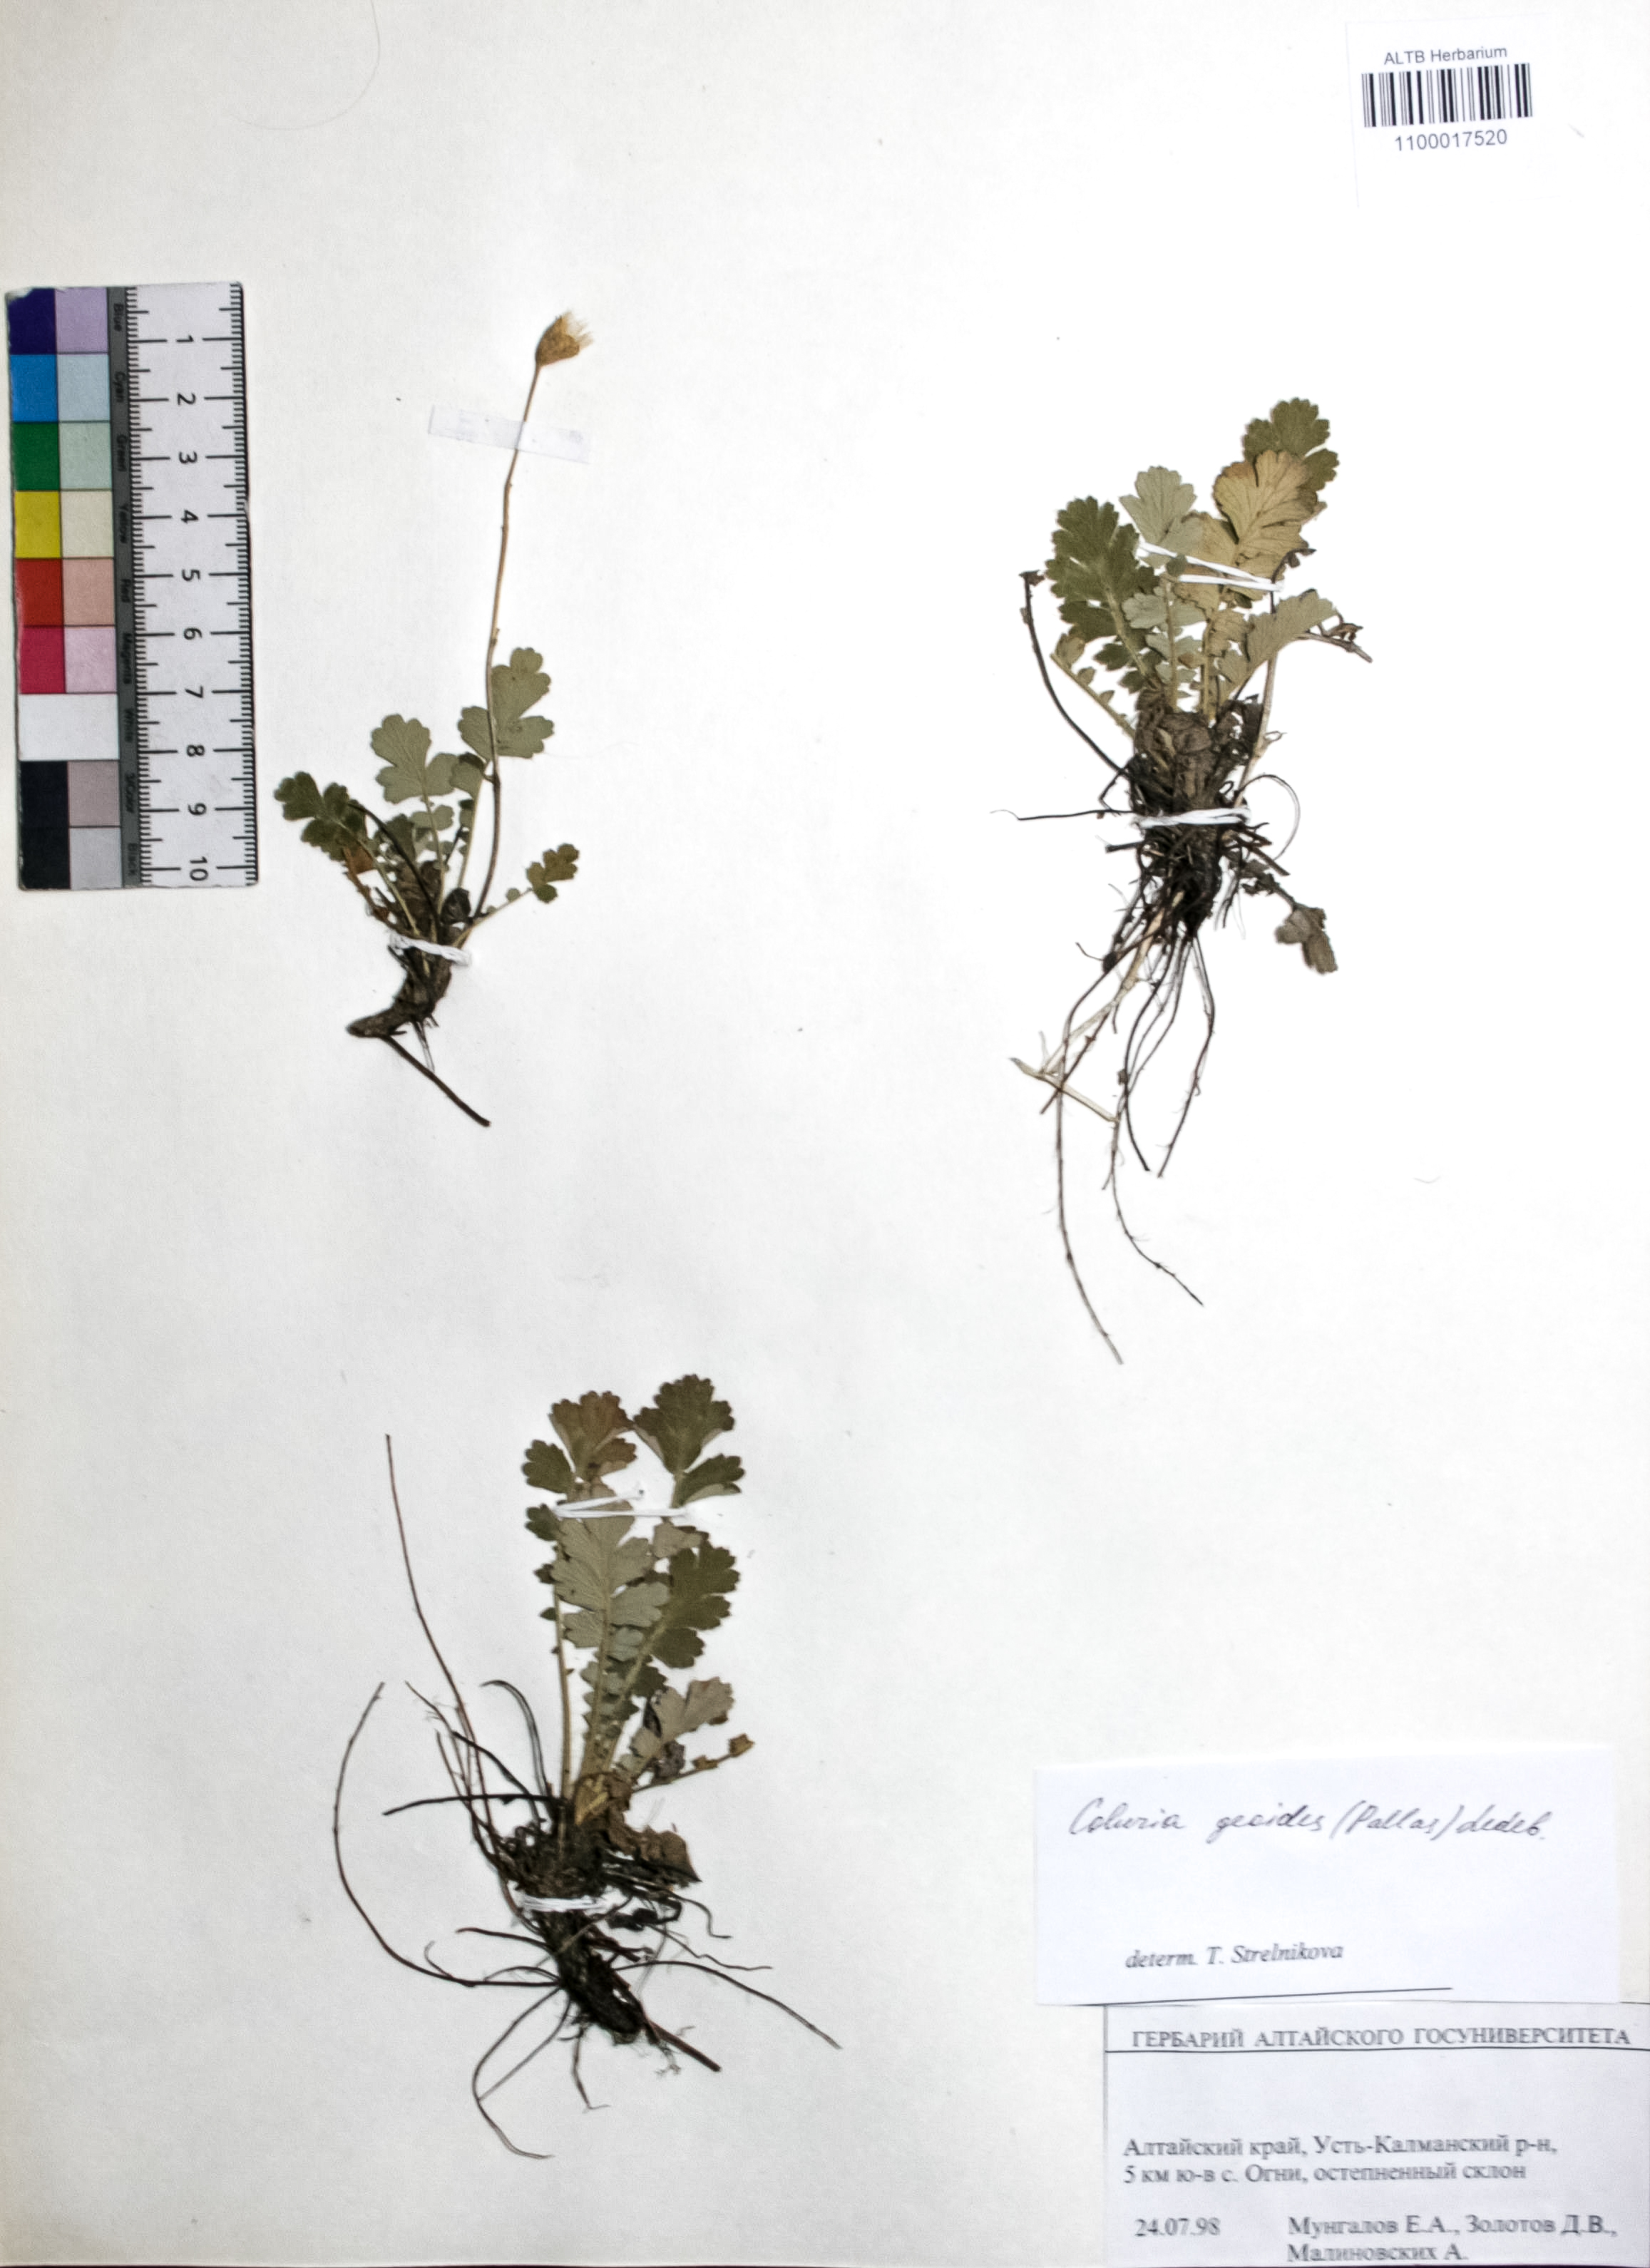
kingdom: Plantae
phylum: Tracheophyta
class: Magnoliopsida
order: Rosales
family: Rosaceae
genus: Geum
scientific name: Geum geoides
